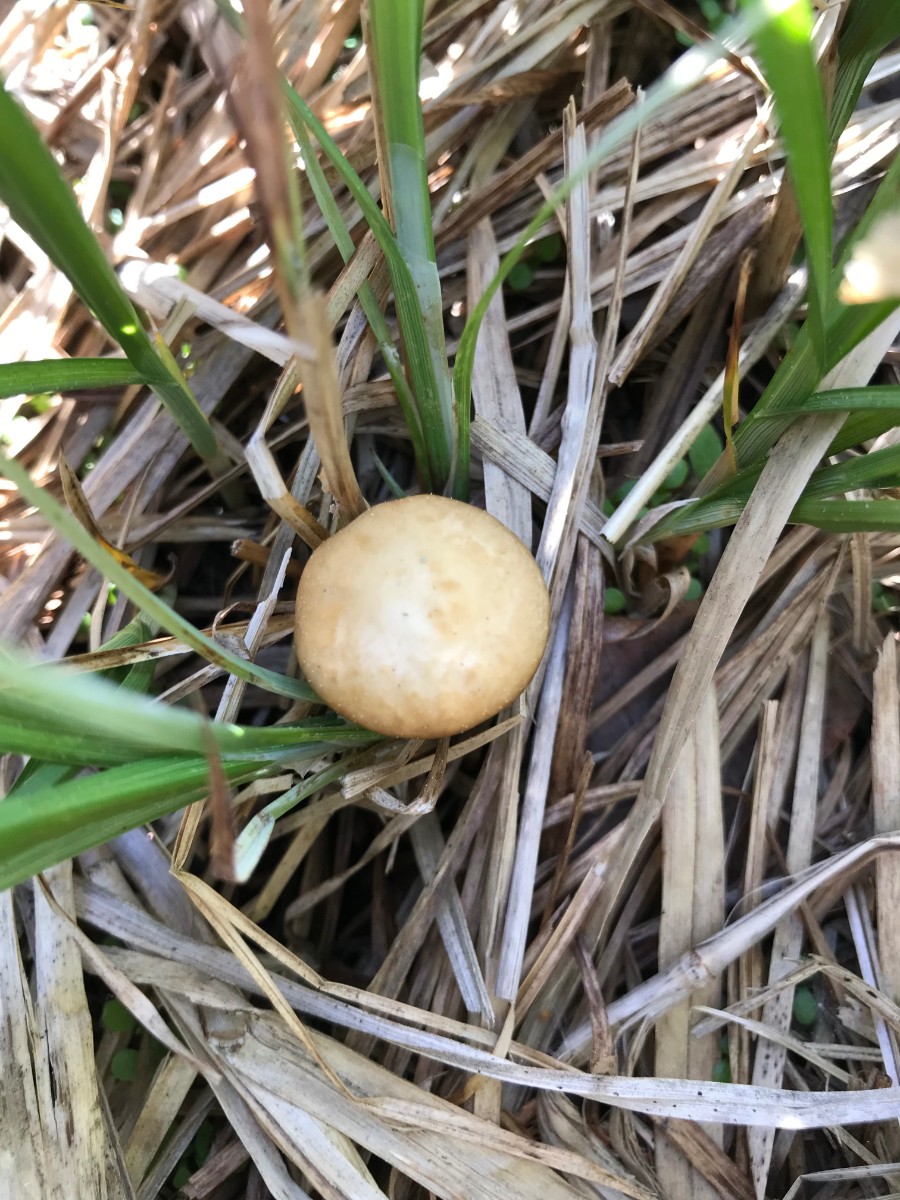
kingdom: Fungi
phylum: Basidiomycota
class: Agaricomycetes
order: Agaricales
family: Strophariaceae
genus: Agrocybe
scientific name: Agrocybe elatella
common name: mose-agerhat
